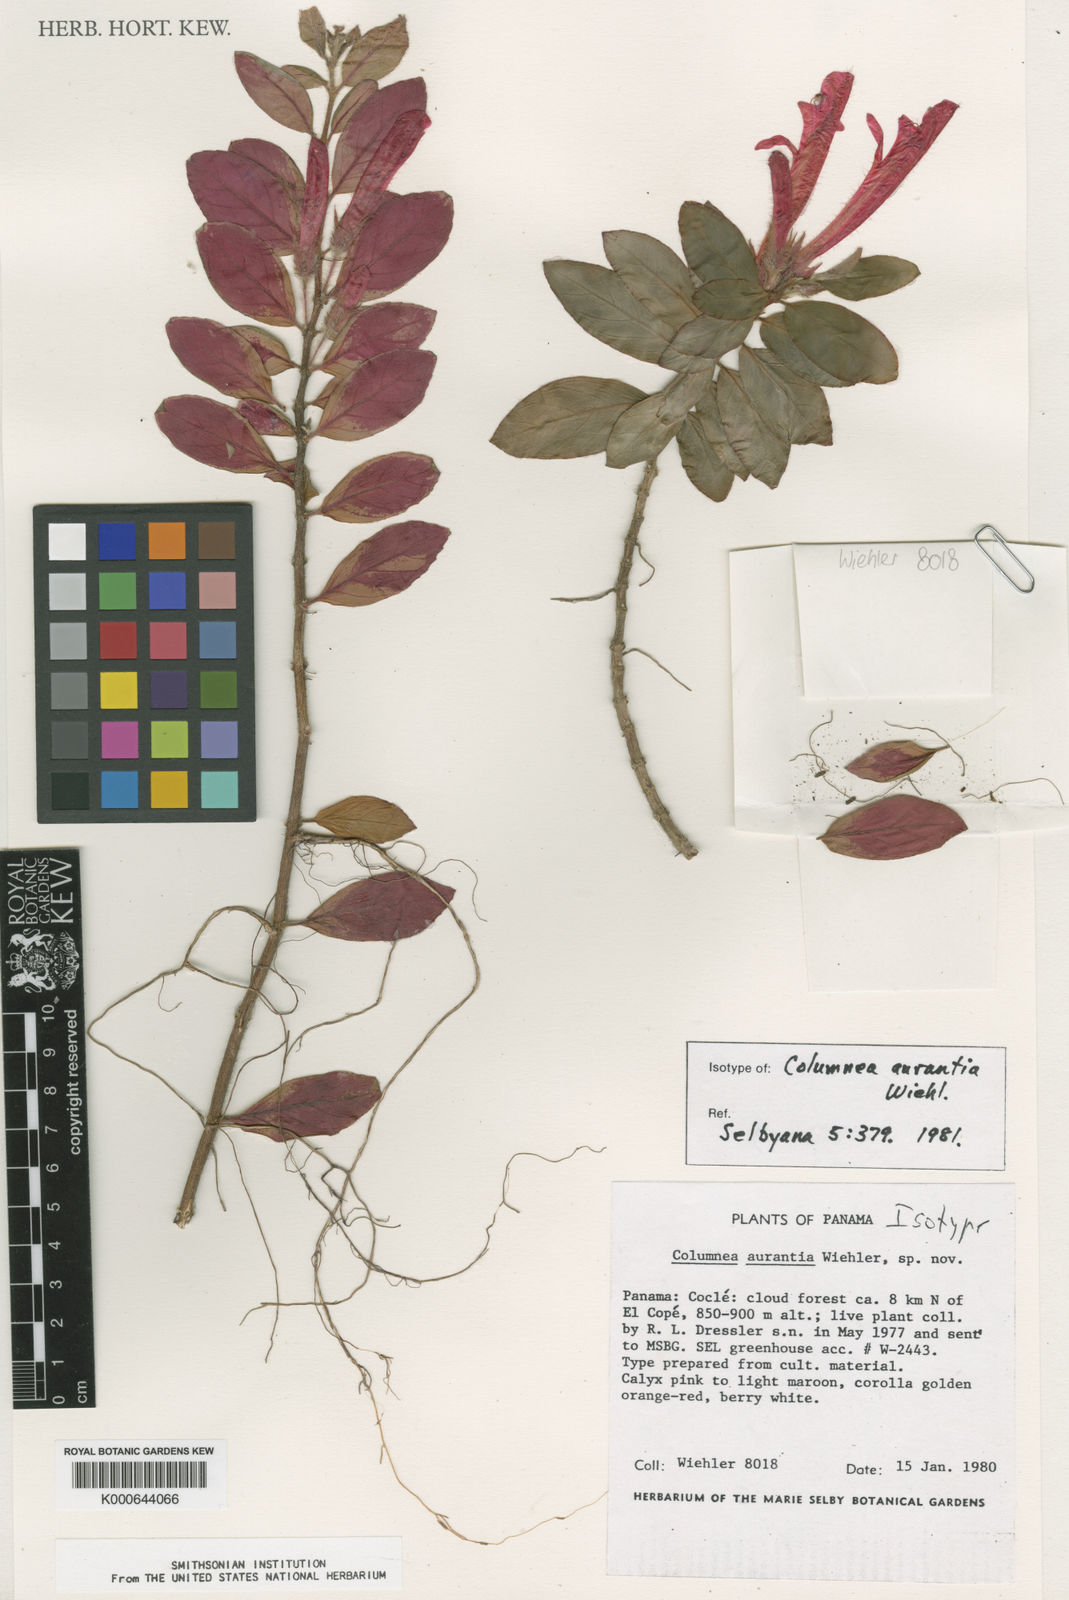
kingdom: Plantae
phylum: Tracheophyta
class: Magnoliopsida
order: Lamiales
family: Gesneriaceae
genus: Columnea
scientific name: Columnea aurantia
